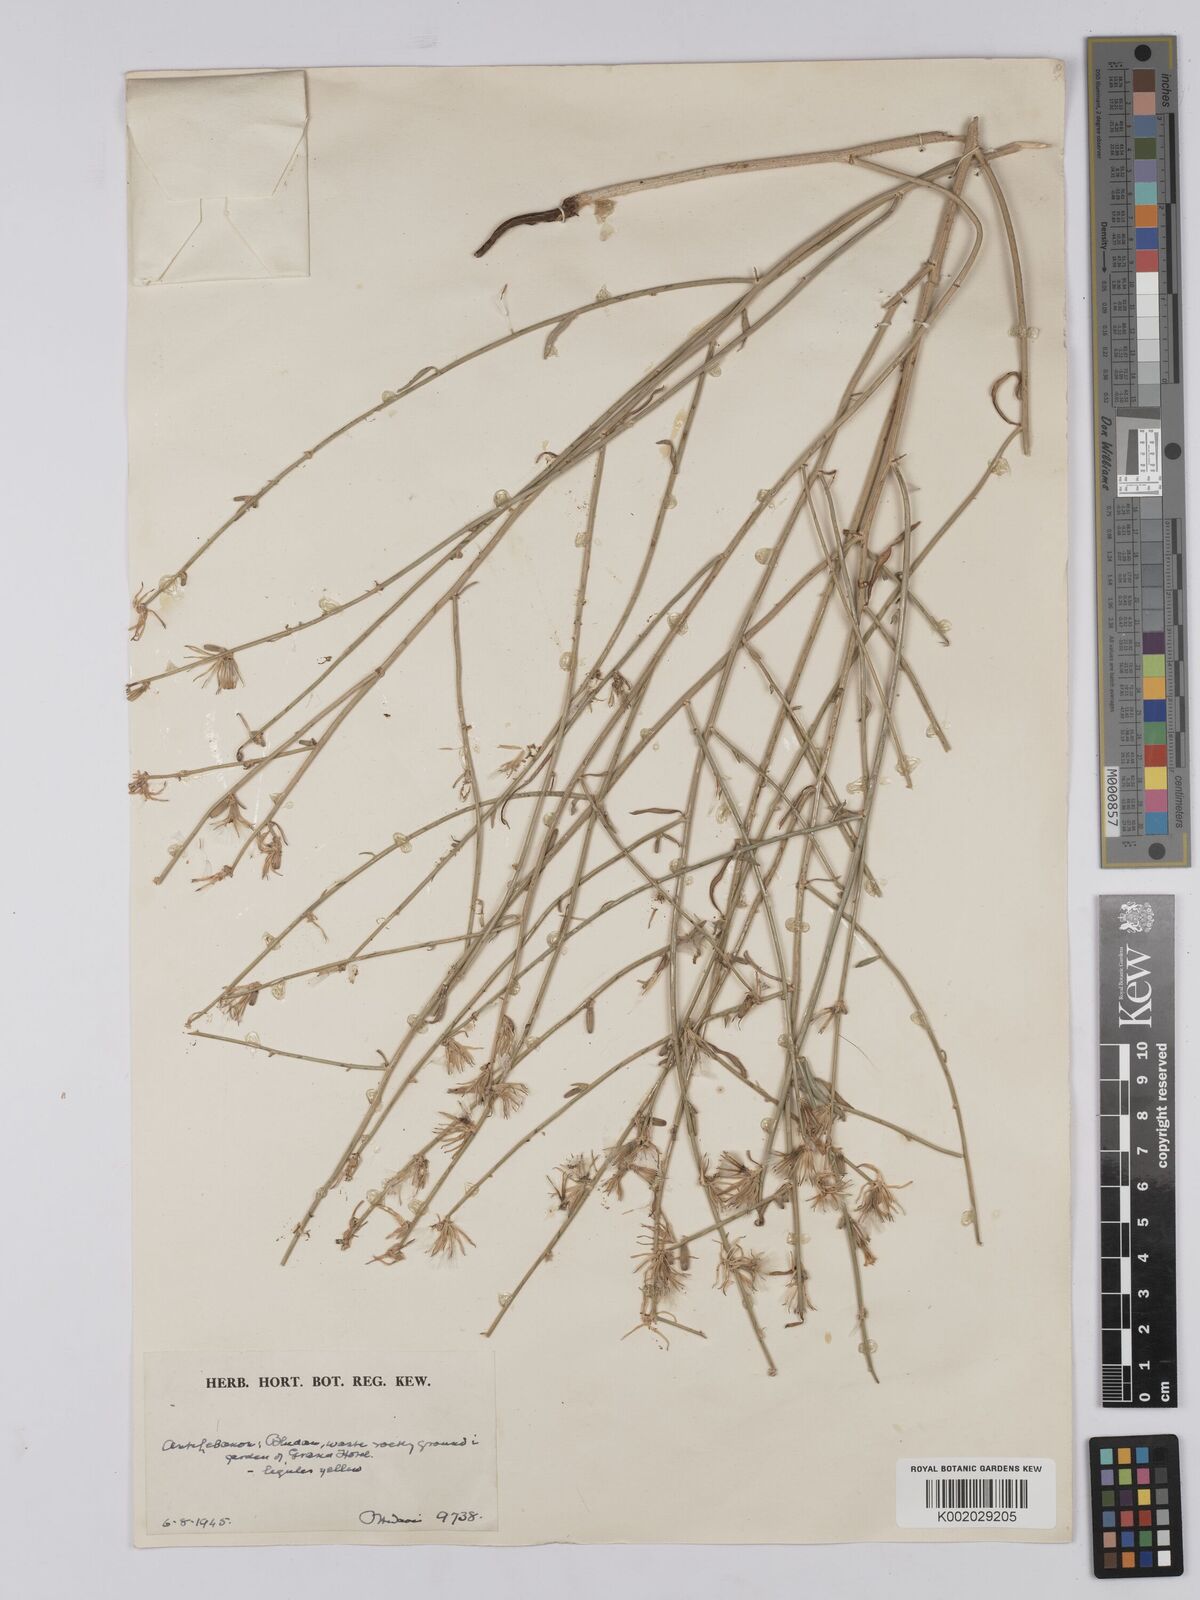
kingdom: Plantae
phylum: Tracheophyta
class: Magnoliopsida
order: Asterales
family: Asteraceae
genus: Chondrilla
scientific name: Chondrilla juncea
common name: Skeleton weed
